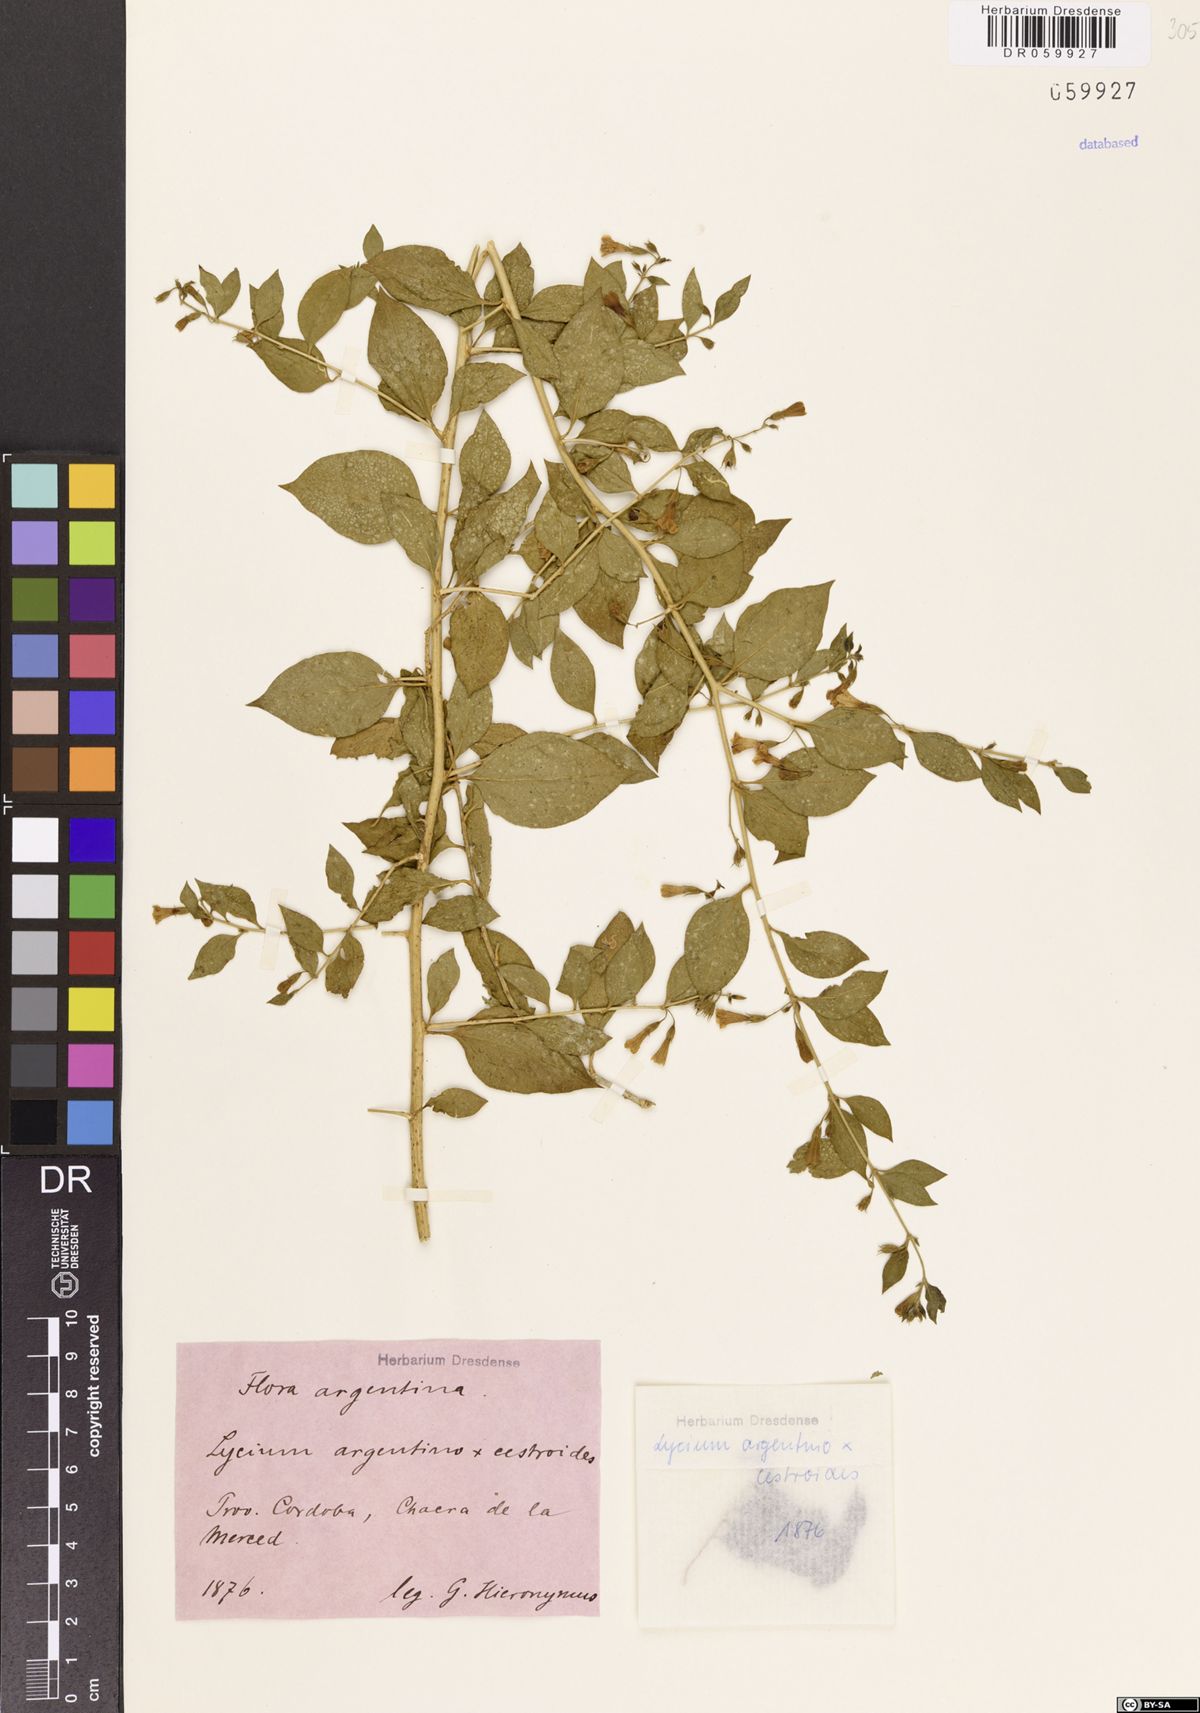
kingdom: Plantae
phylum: Tracheophyta
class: Magnoliopsida
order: Solanales
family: Solanaceae
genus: Lycium
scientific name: Lycium argentino-cestroides
